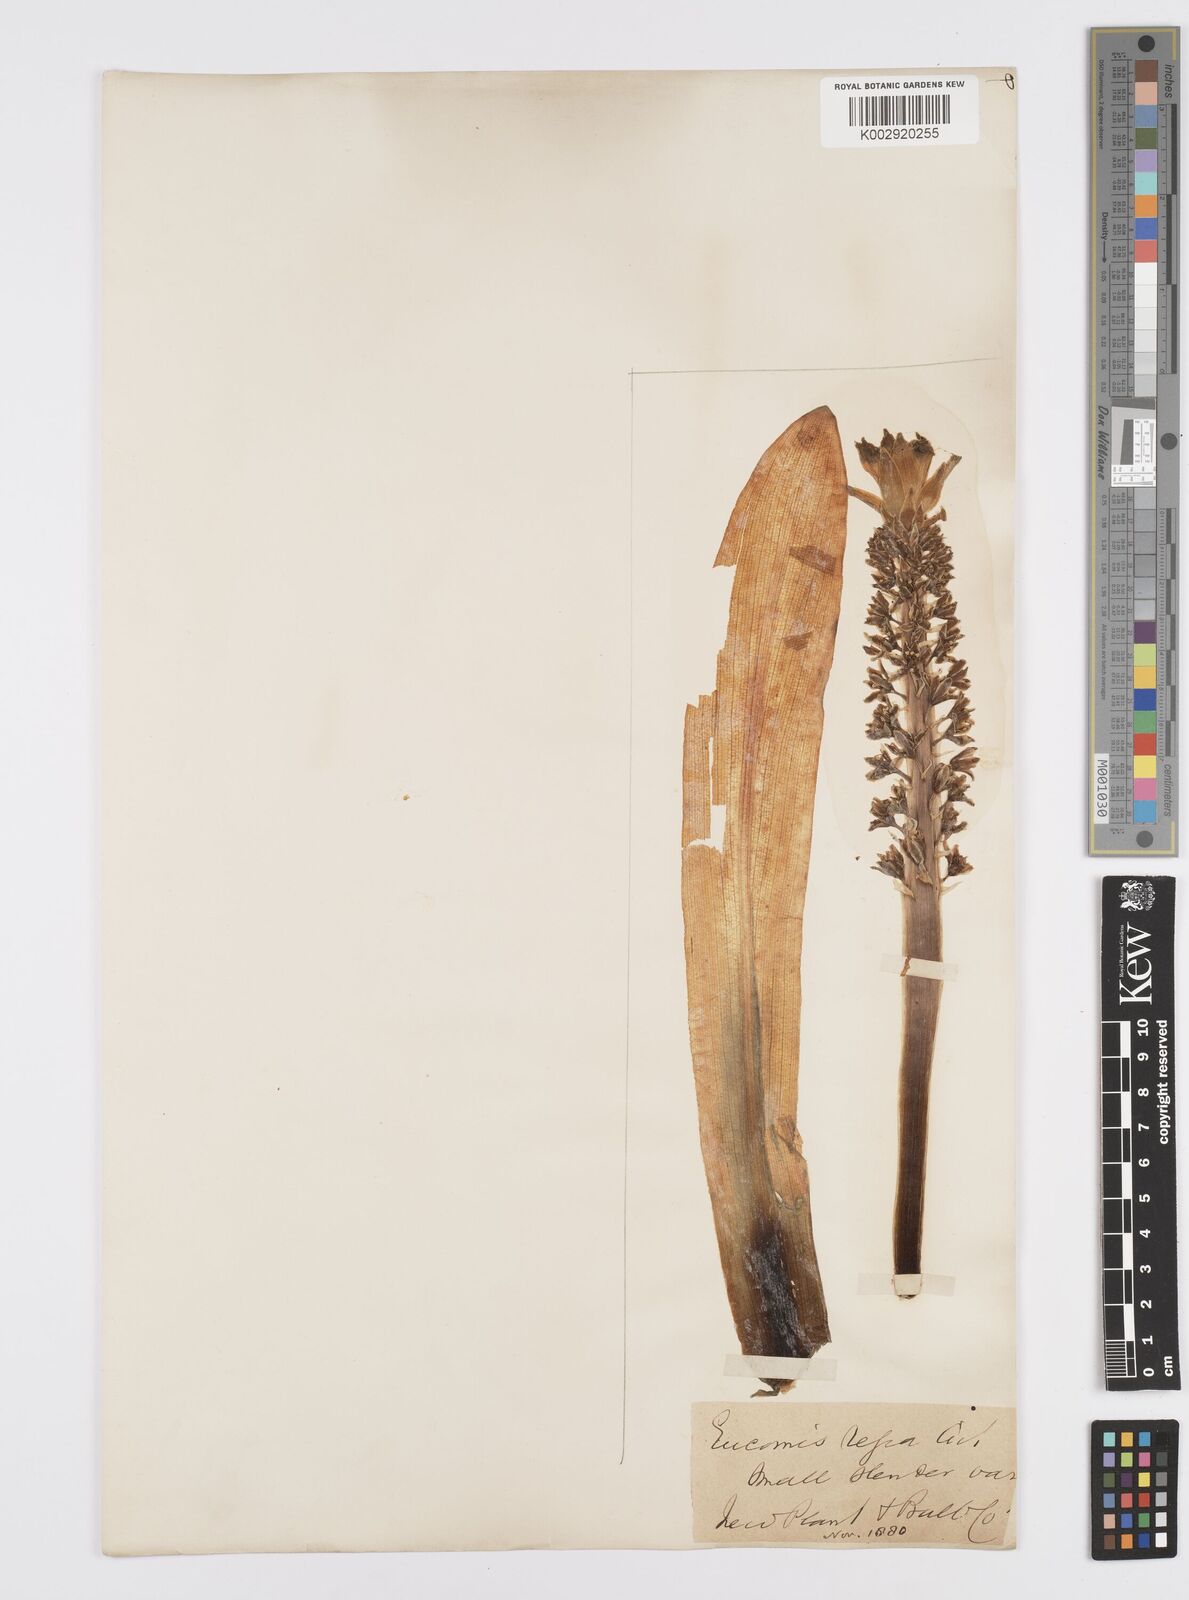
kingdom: Plantae
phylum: Tracheophyta
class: Liliopsida
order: Asparagales
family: Asparagaceae
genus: Eucomis
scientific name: Eucomis
